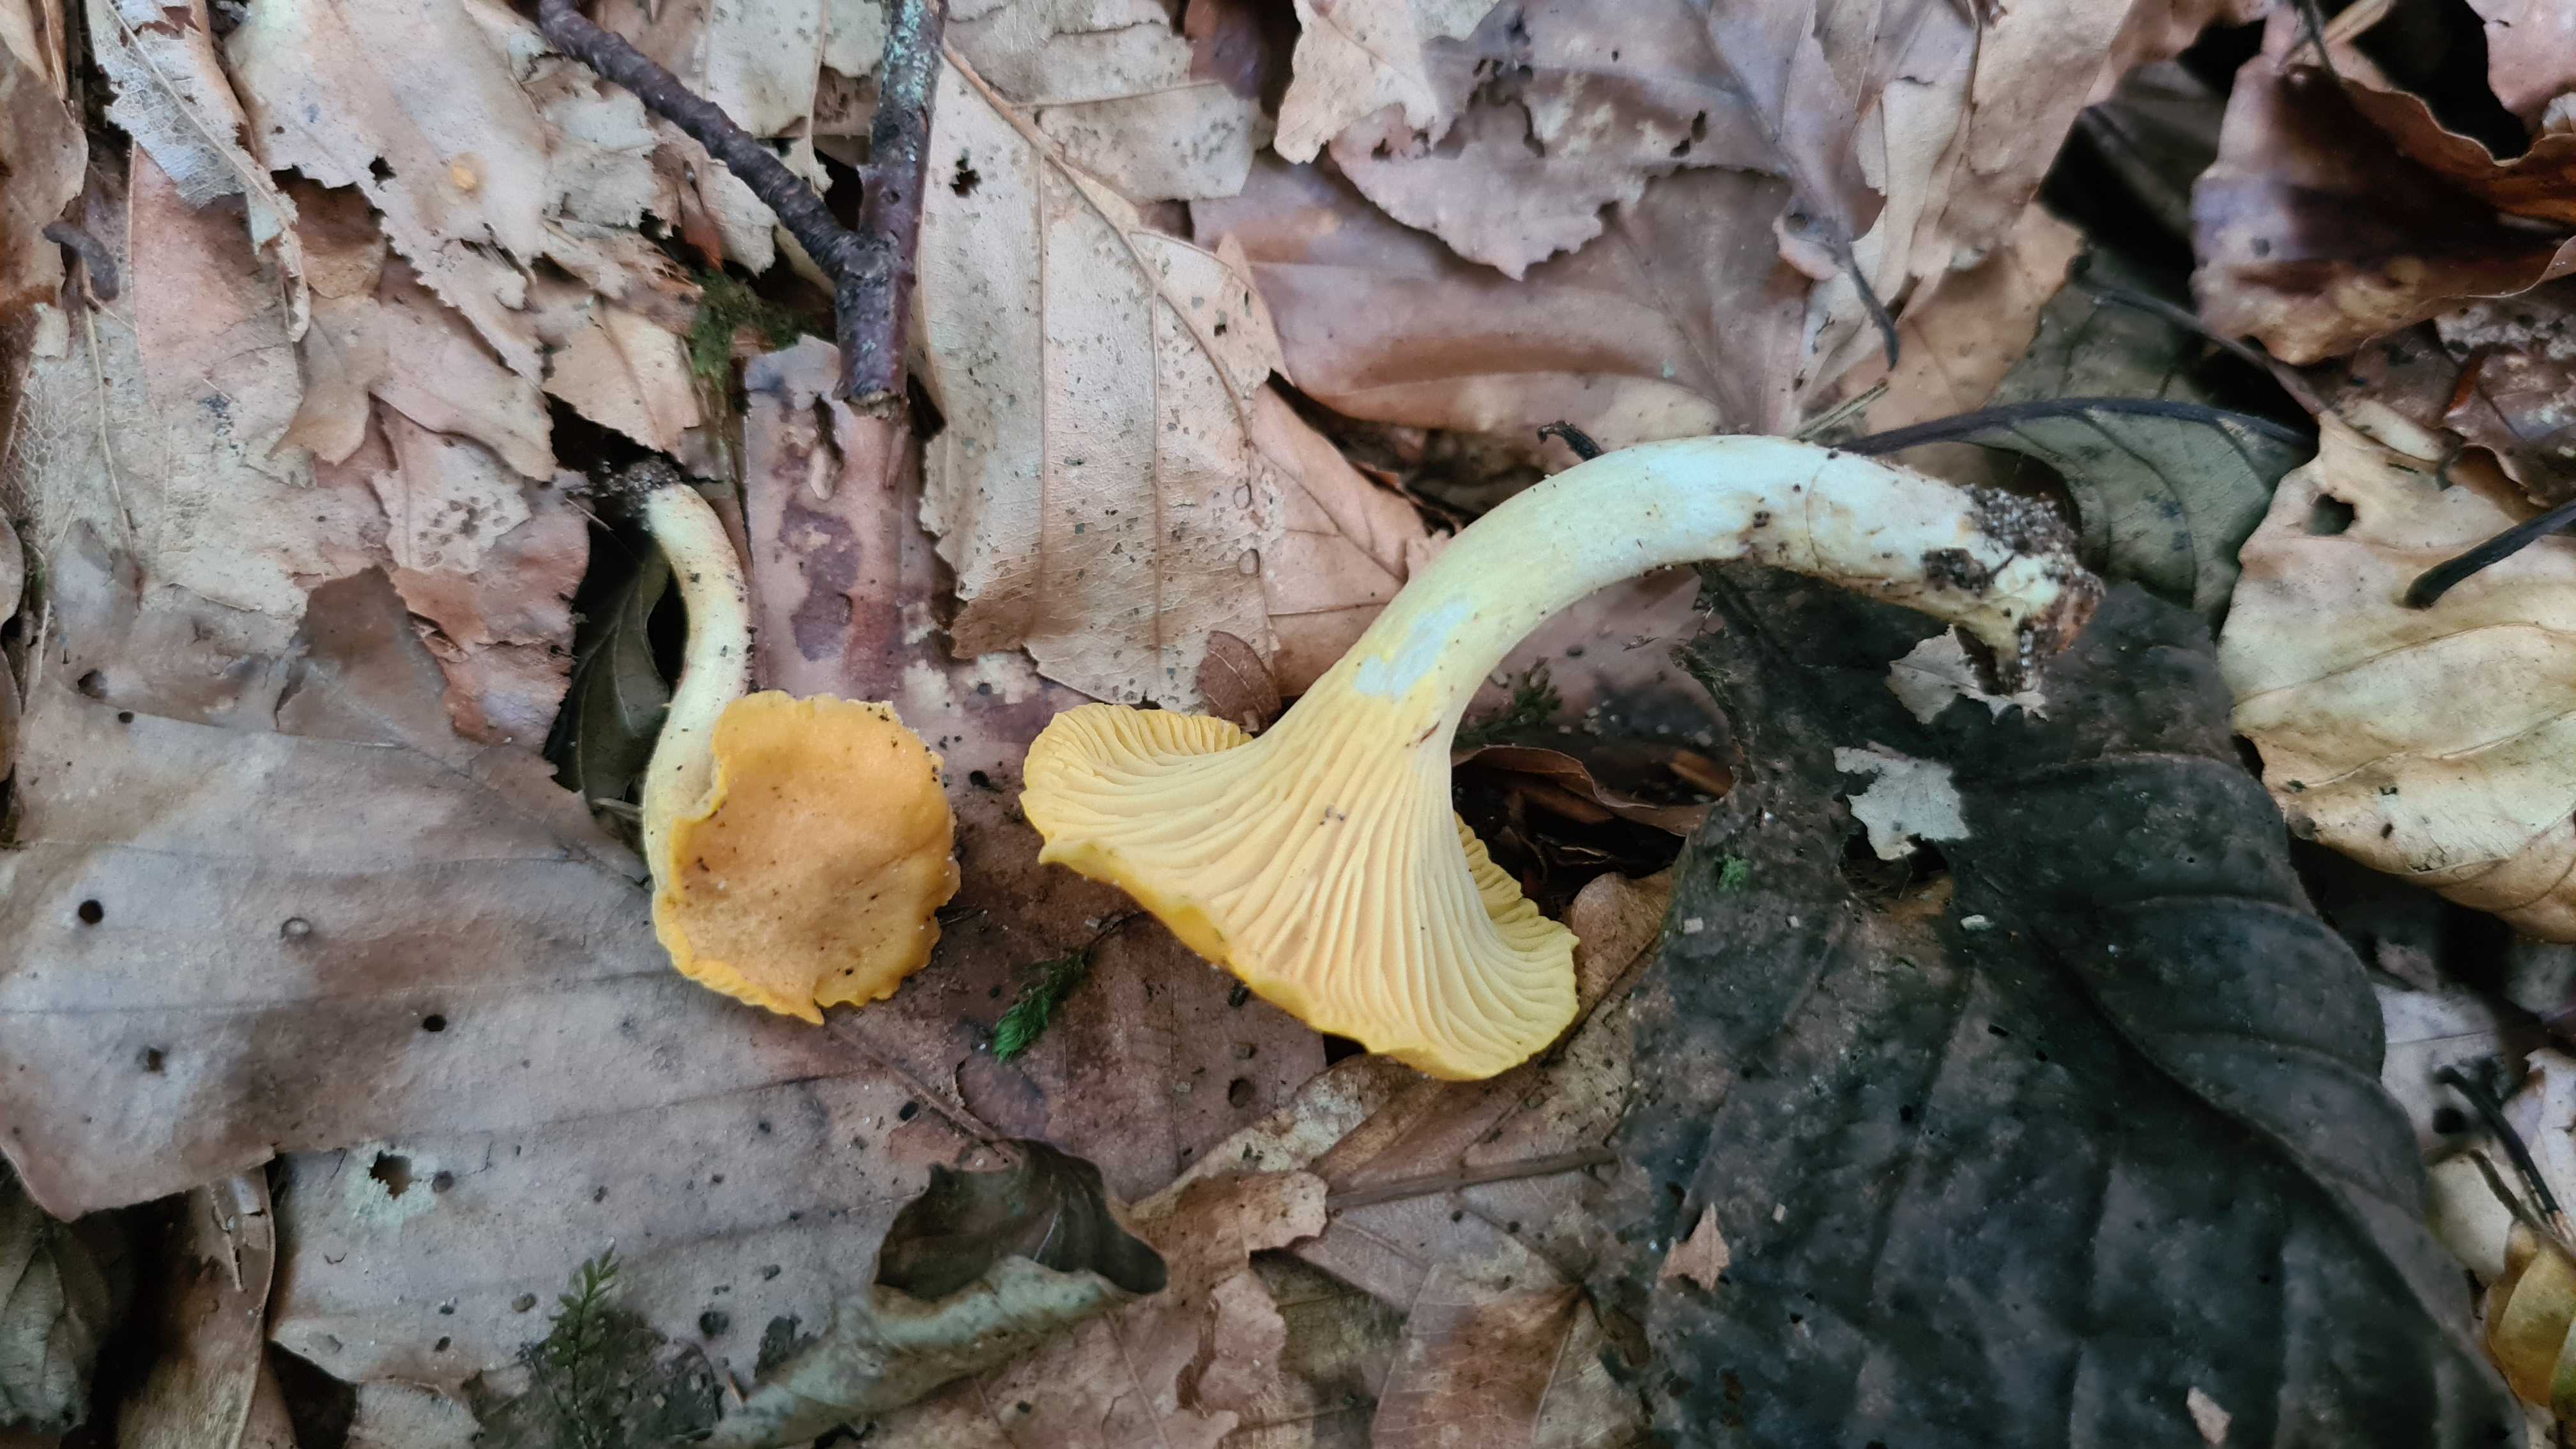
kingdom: Fungi
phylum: Basidiomycota
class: Agaricomycetes
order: Cantharellales
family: Hydnaceae
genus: Cantharellus
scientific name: Cantharellus cibarius
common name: almindelig kantarel
